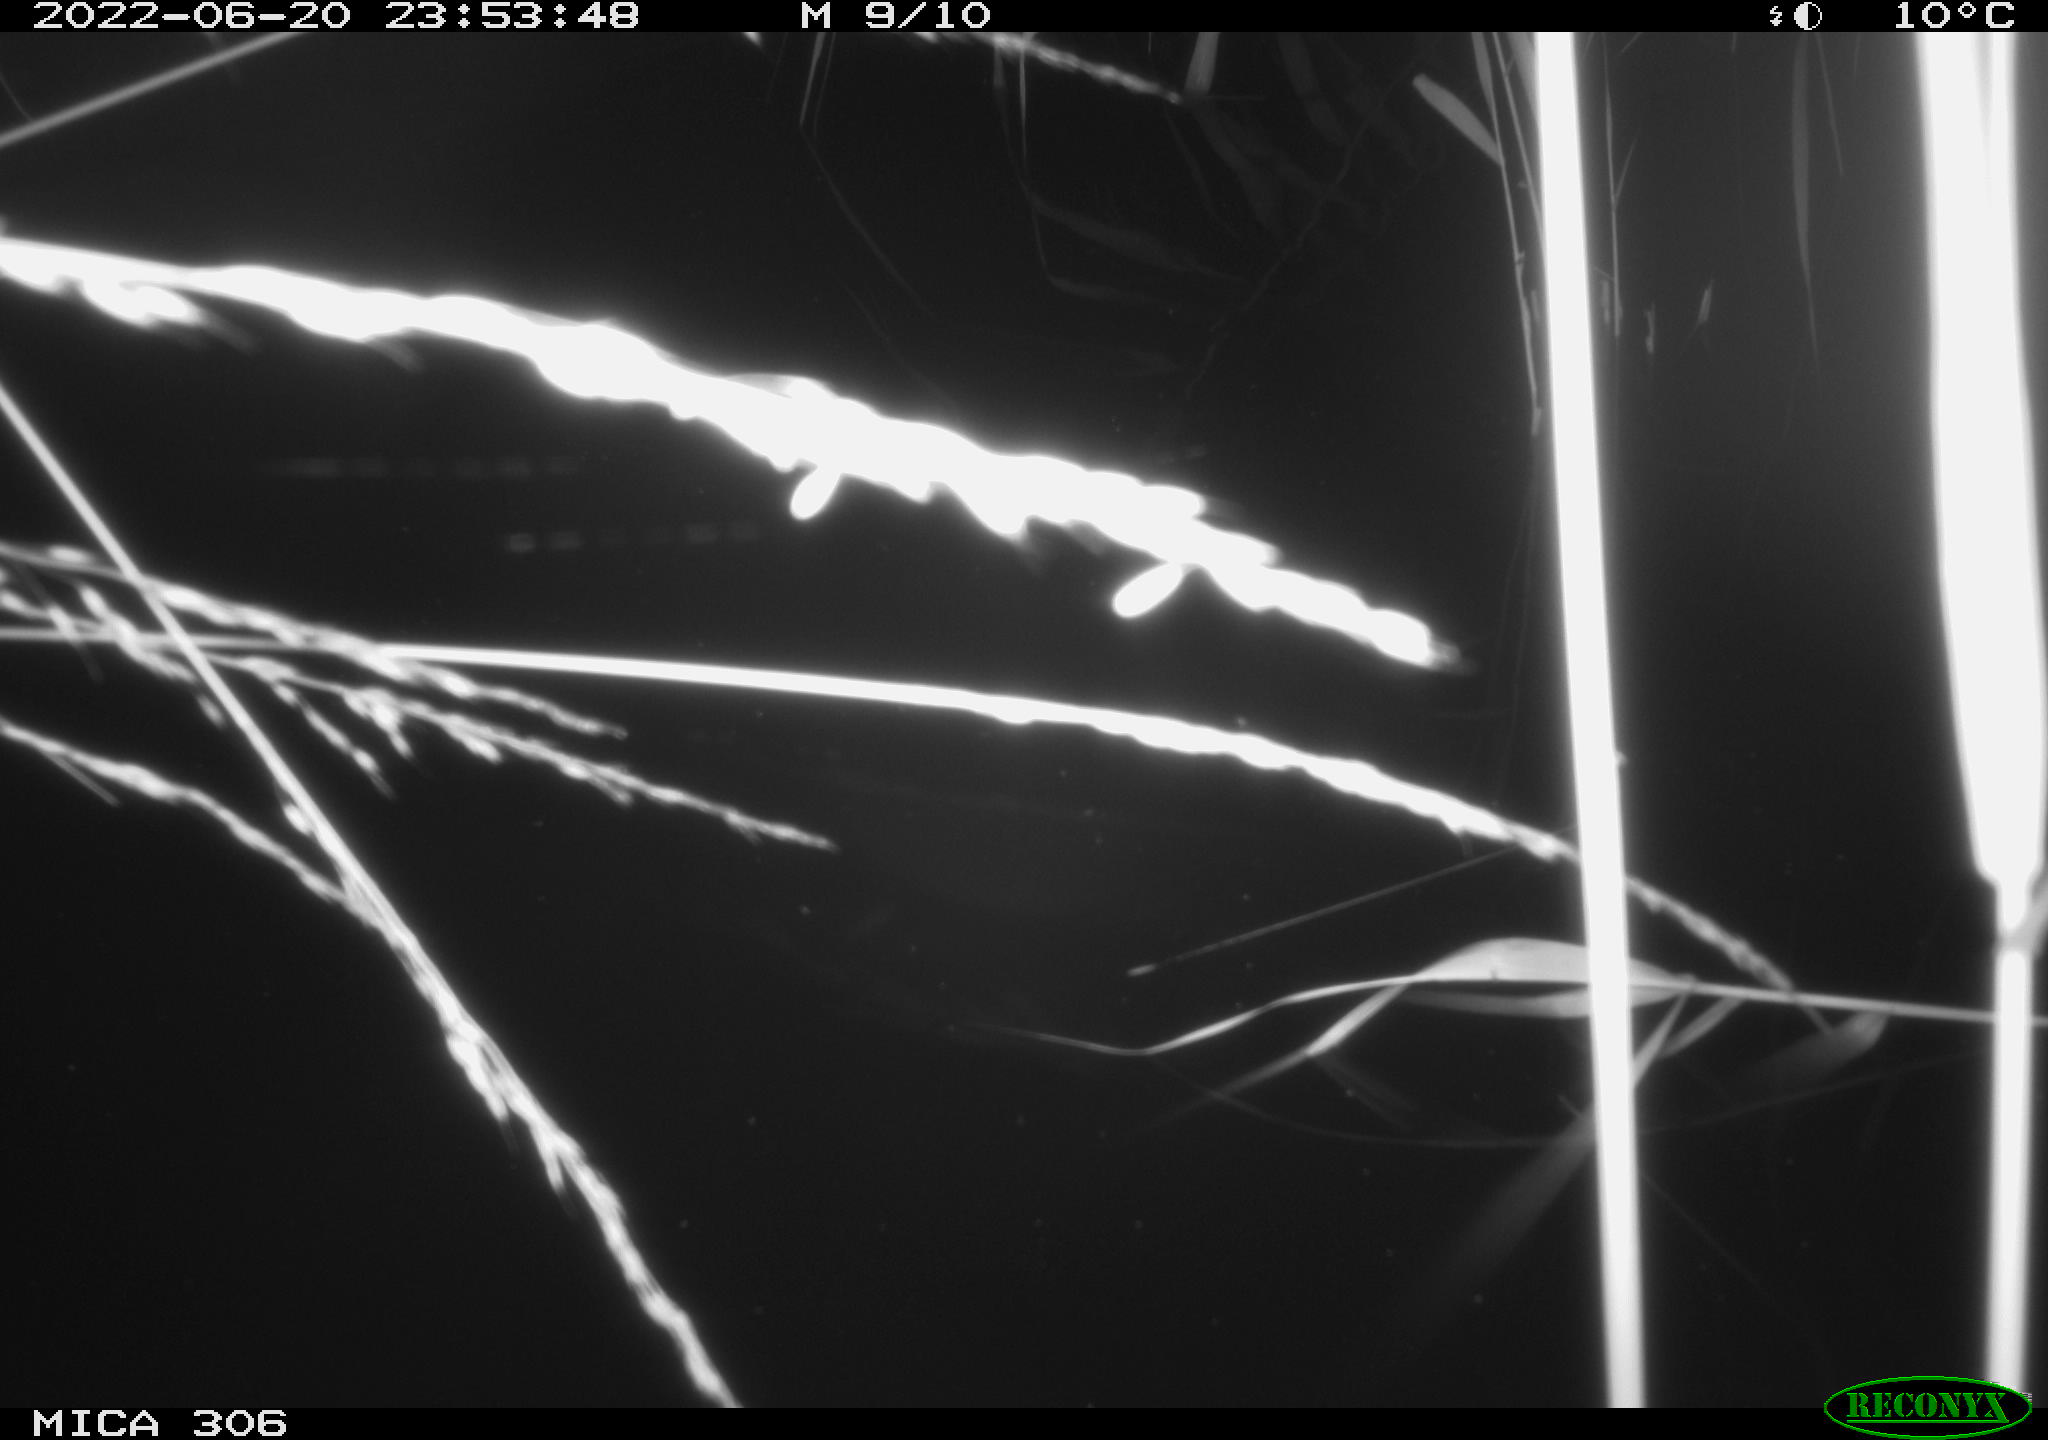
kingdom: Animalia
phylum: Chordata
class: Mammalia
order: Rodentia
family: Cricetidae
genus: Ondatra
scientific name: Ondatra zibethicus
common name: Muskrat
